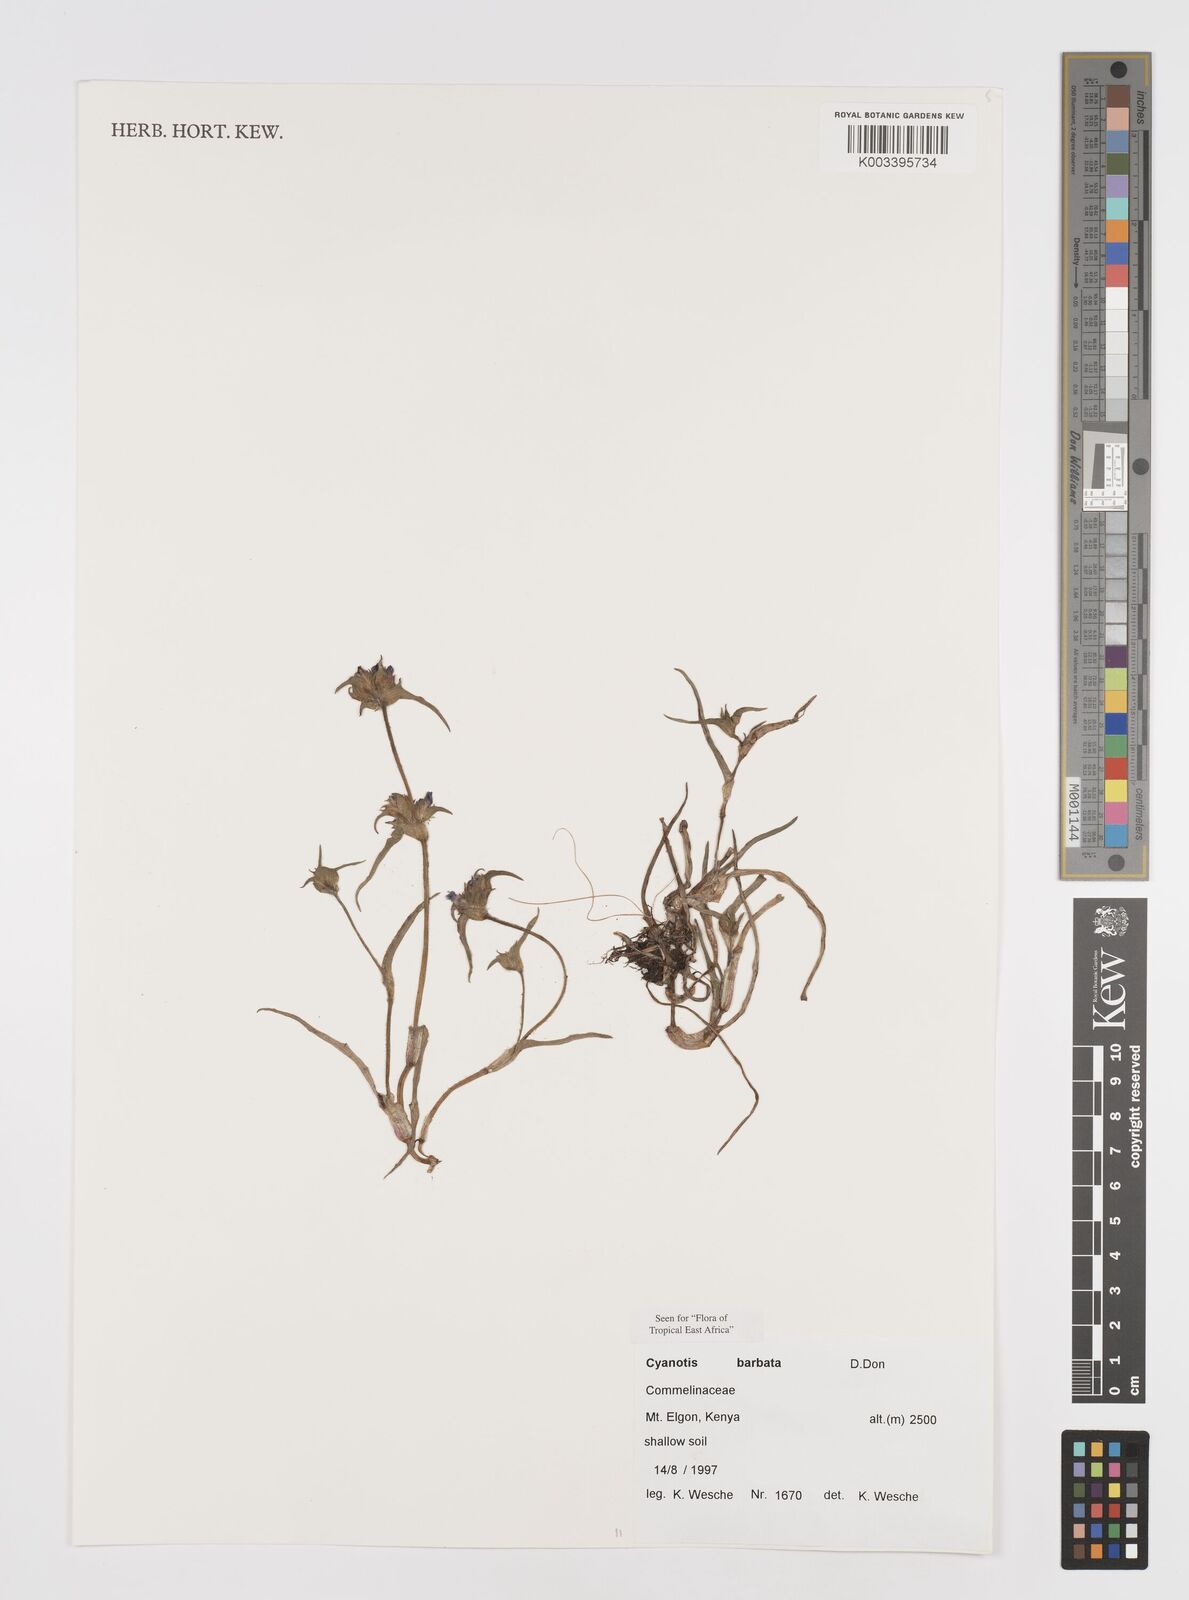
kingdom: Plantae
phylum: Tracheophyta
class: Liliopsida
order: Commelinales
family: Commelinaceae
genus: Cyanotis
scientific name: Cyanotis vaga
